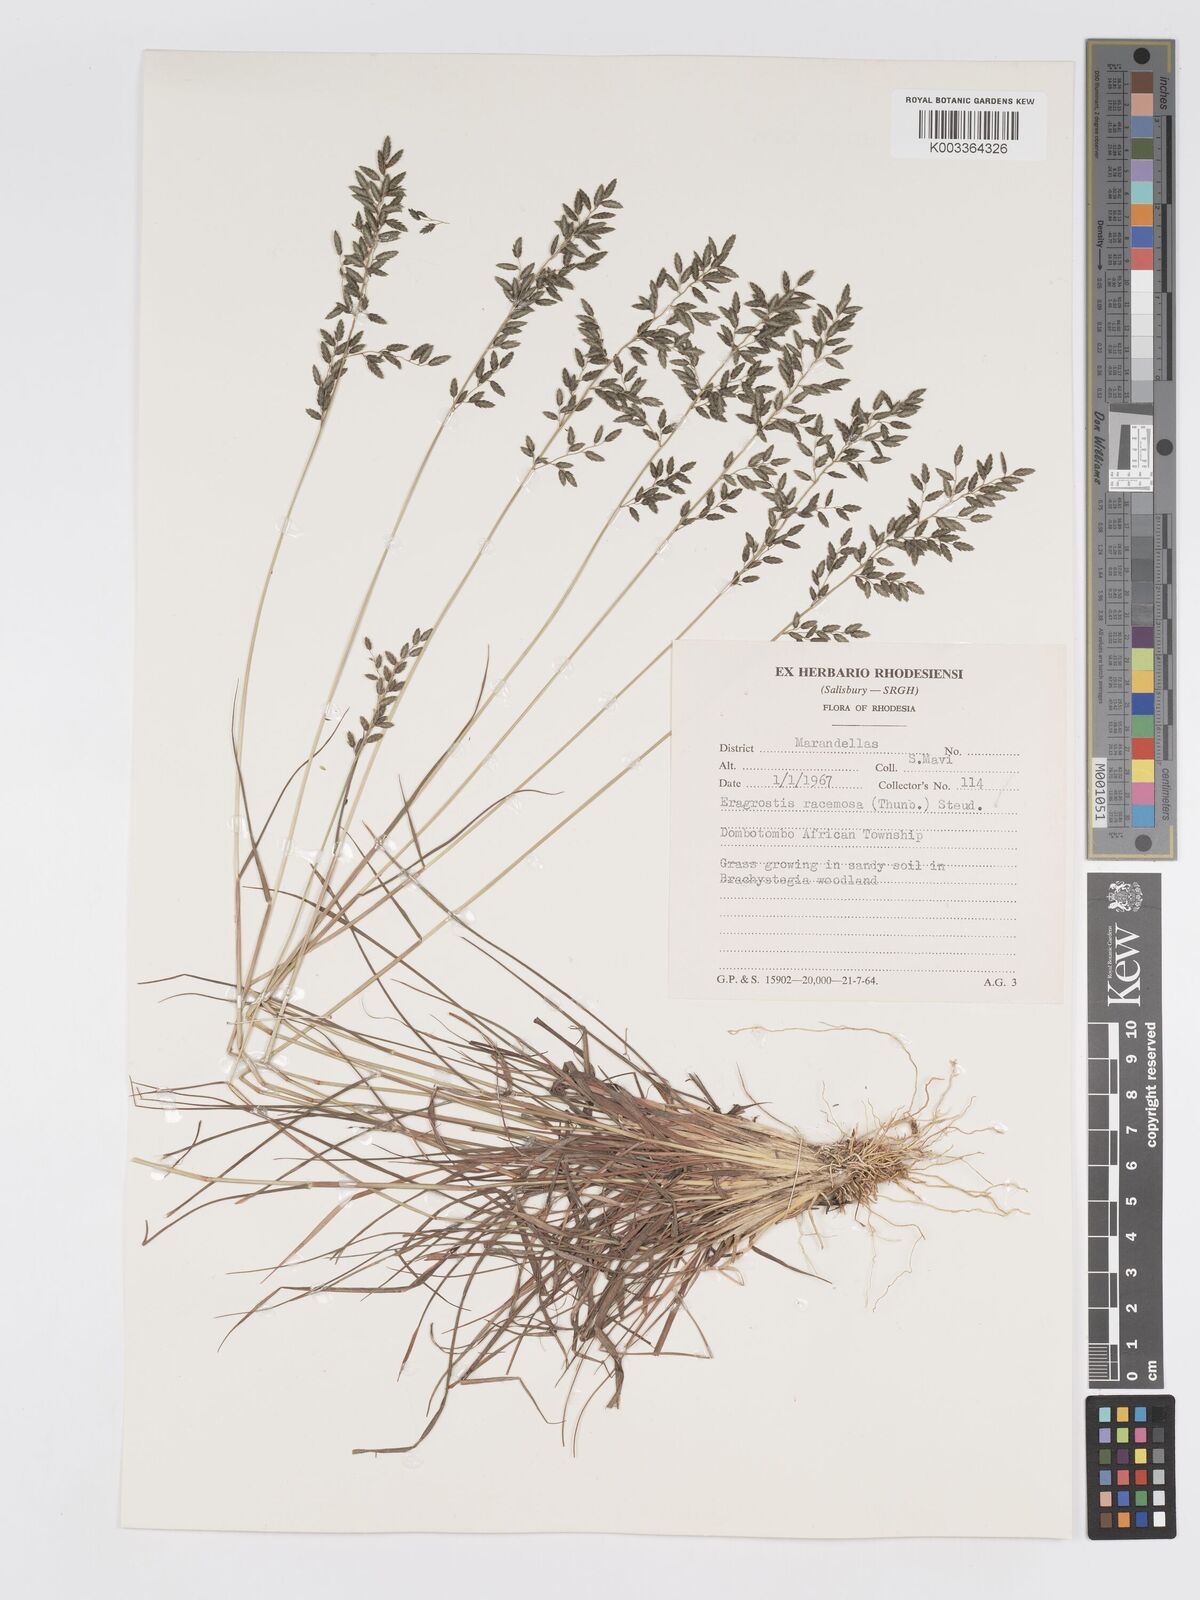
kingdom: Plantae
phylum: Tracheophyta
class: Liliopsida
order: Poales
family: Poaceae
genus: Eragrostis
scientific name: Eragrostis racemosa
